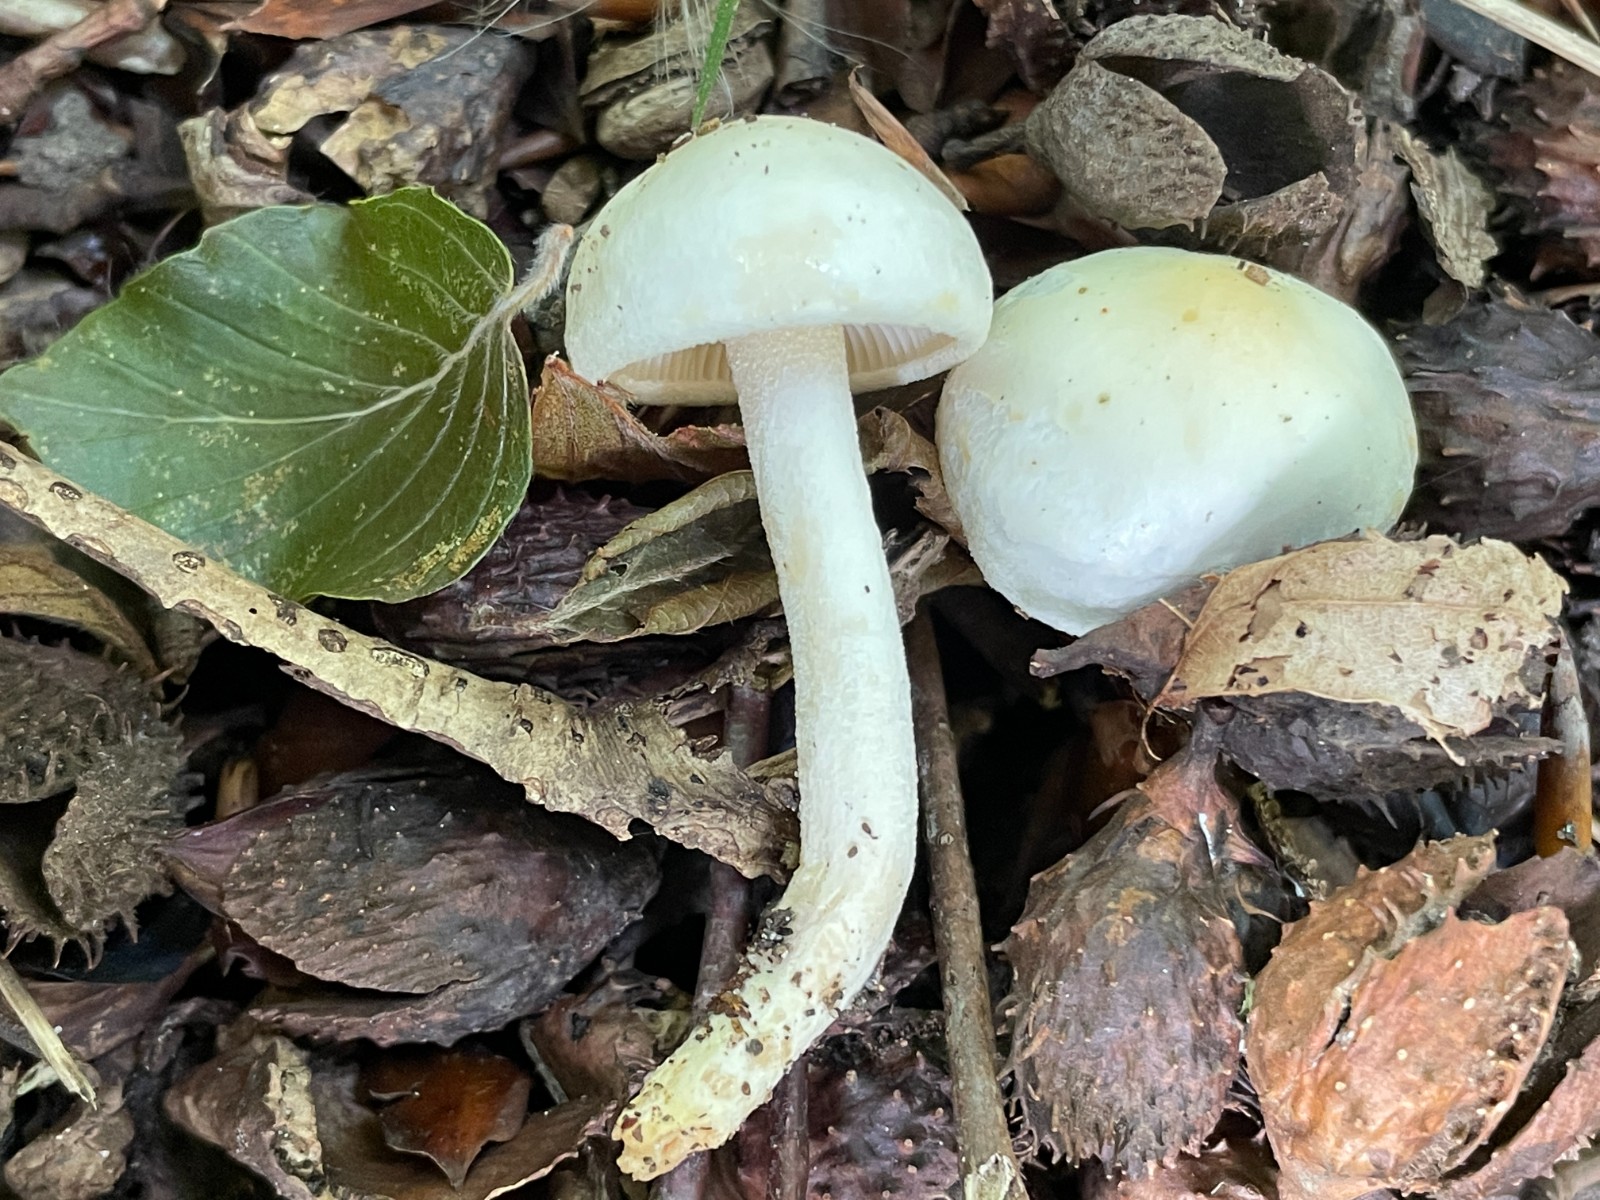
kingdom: Fungi
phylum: Basidiomycota
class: Agaricomycetes
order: Agaricales
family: Hygrophoraceae
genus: Hygrophorus
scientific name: Hygrophorus eburneus
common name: elfenbens-sneglehat
